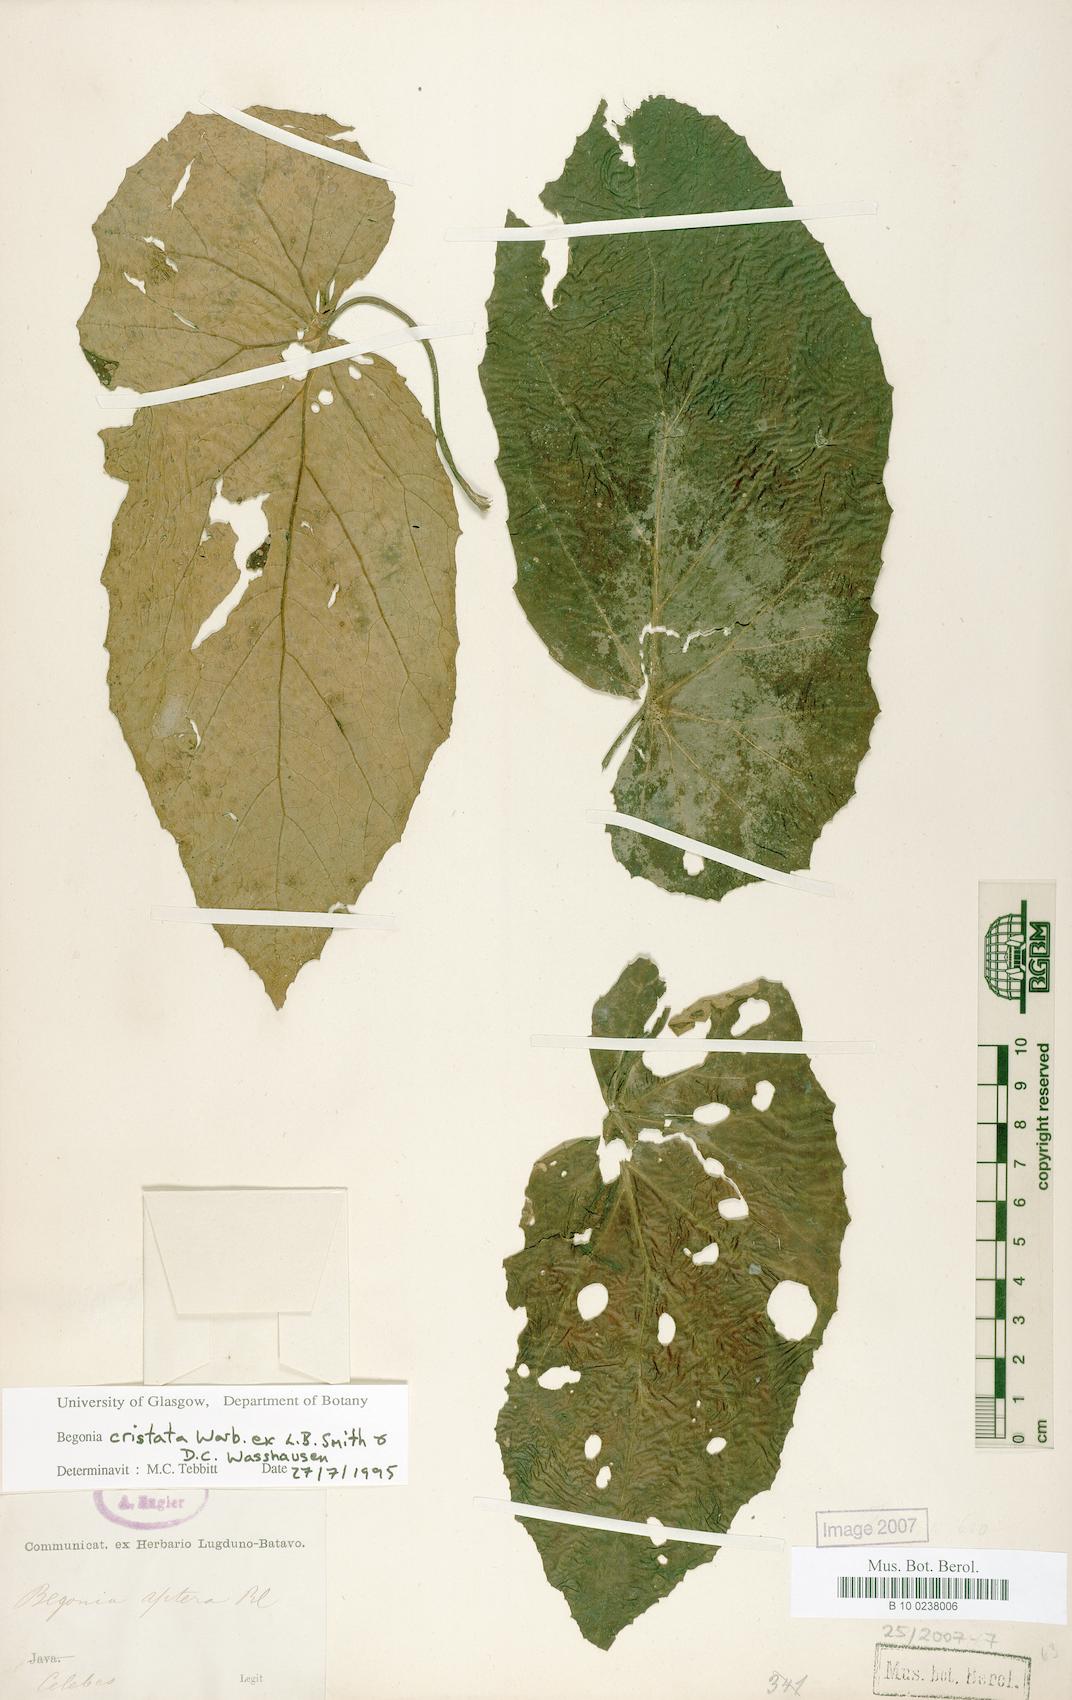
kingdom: Plantae
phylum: Tracheophyta
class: Magnoliopsida
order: Cucurbitales
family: Begoniaceae
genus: Begonia
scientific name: Begonia aptera
